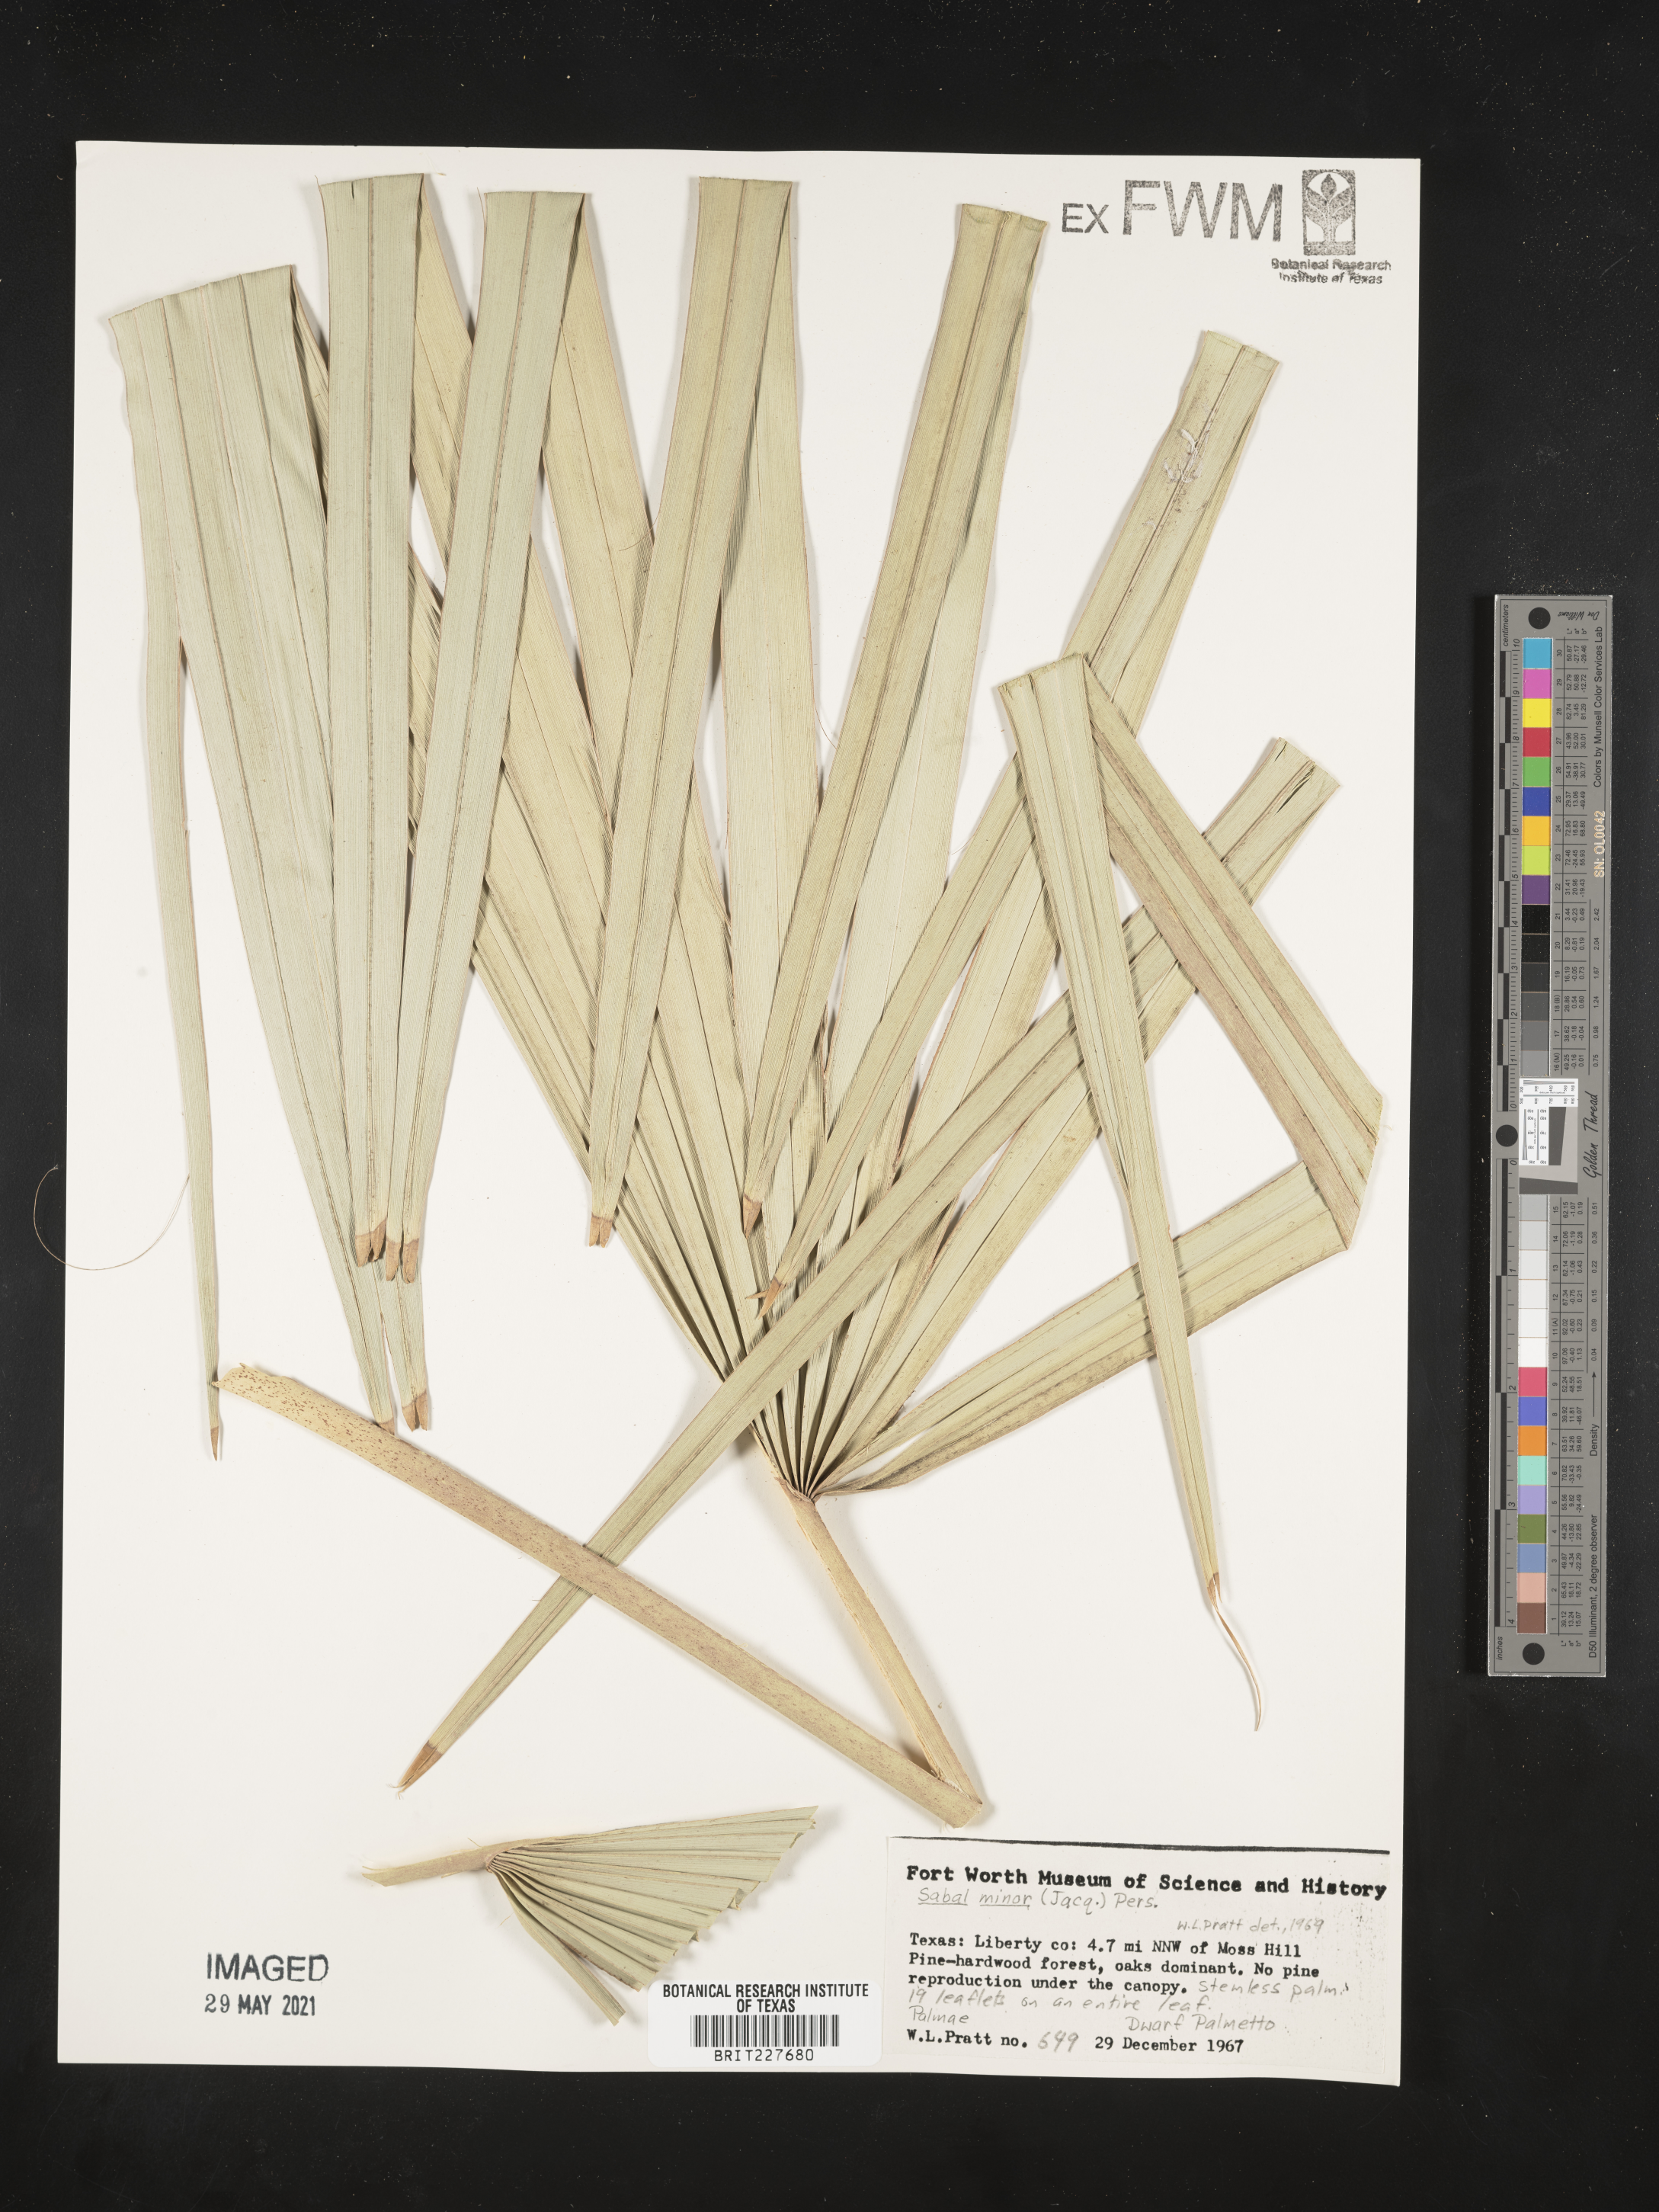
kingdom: Plantae
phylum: Tracheophyta
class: Liliopsida
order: Arecales
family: Arecaceae
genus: Sabal
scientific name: Sabal minor
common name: Dwarf palmetto
